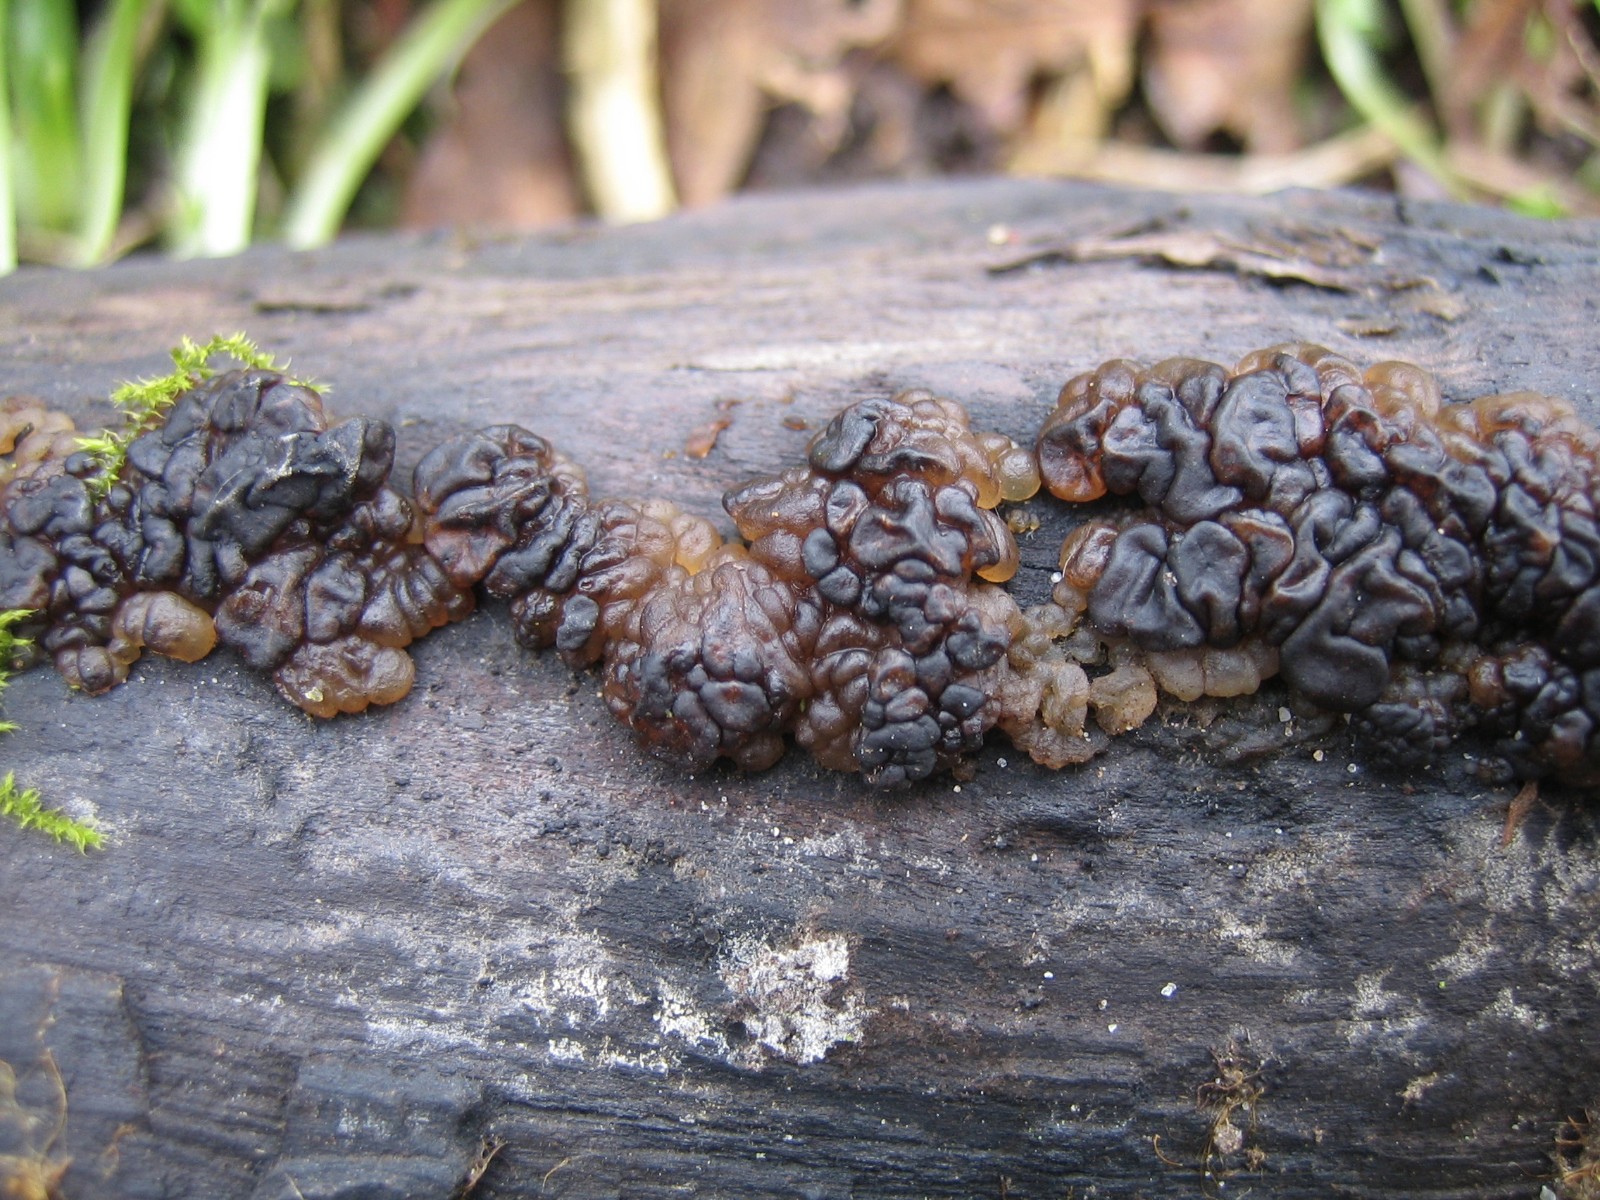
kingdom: Fungi
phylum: Basidiomycota
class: Agaricomycetes
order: Auriculariales
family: Auriculariaceae
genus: Exidia
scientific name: Exidia nigricans
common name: almindelig bævretop
